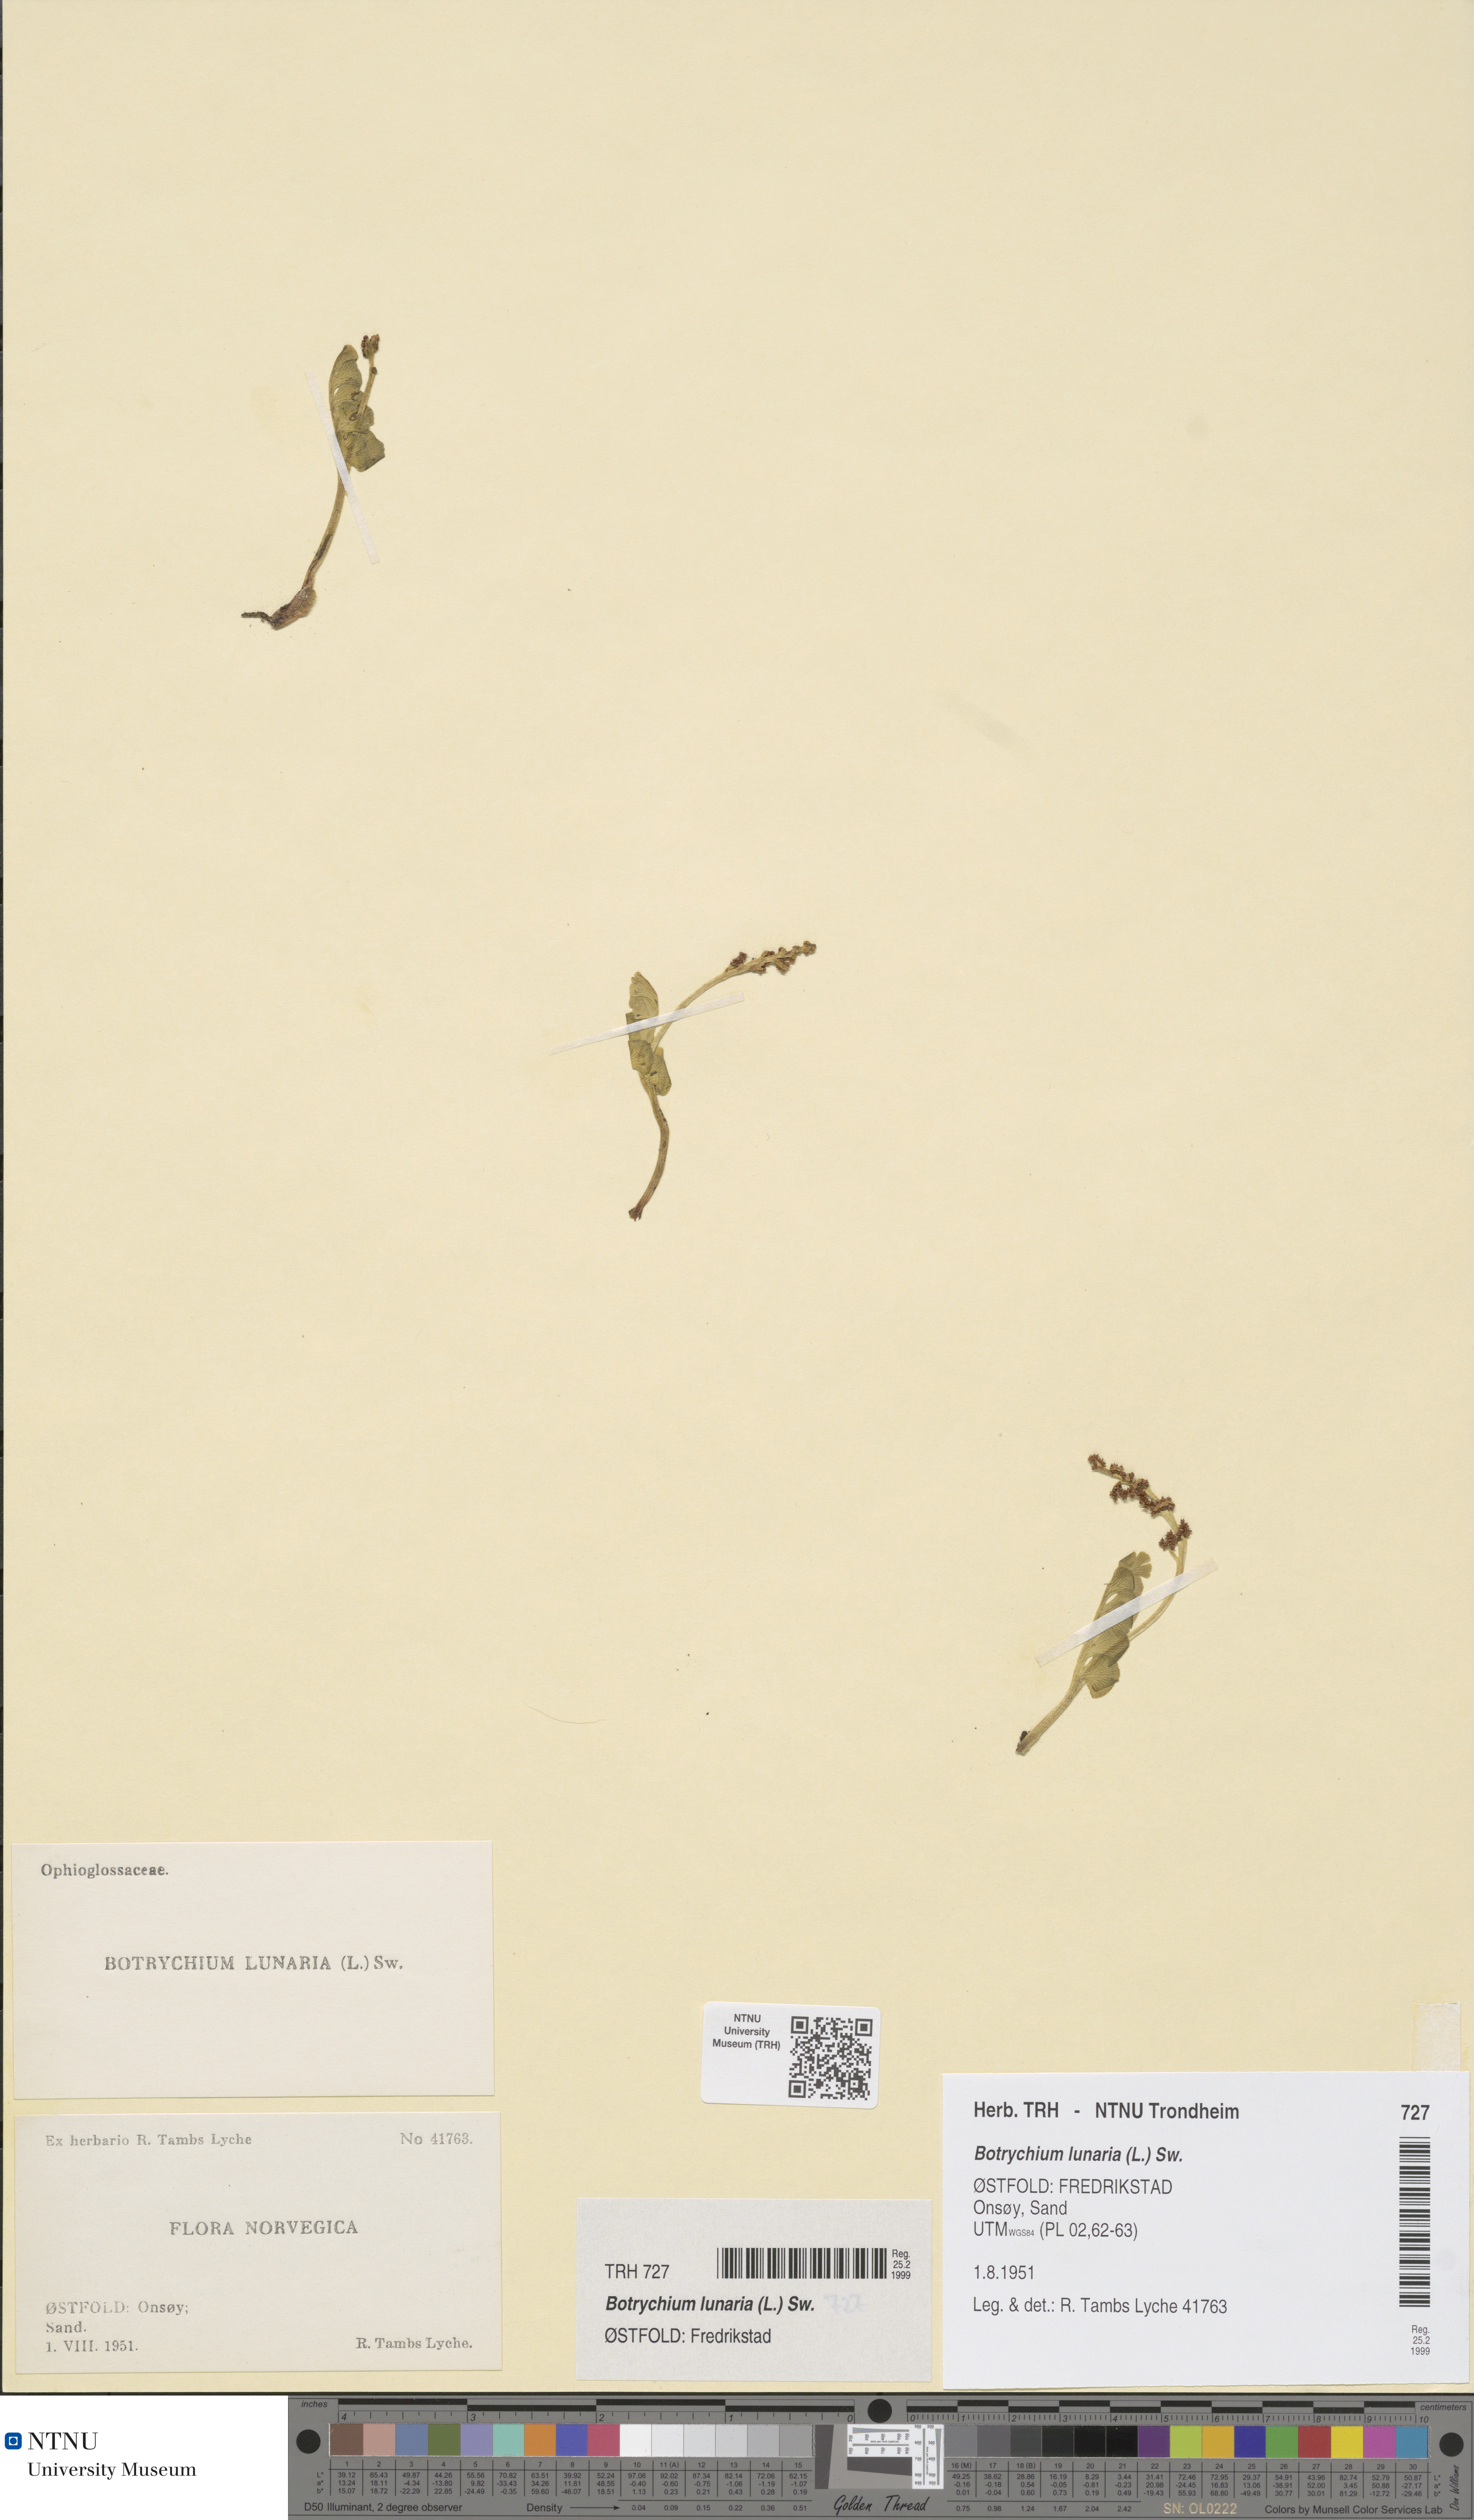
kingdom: Plantae
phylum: Tracheophyta
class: Polypodiopsida
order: Ophioglossales
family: Ophioglossaceae
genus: Botrychium
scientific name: Botrychium lunaria
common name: Moonwort
